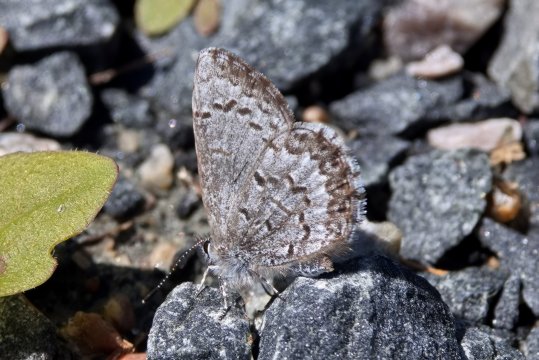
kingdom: Animalia
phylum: Arthropoda
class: Insecta
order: Lepidoptera
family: Lycaenidae
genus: Celastrina
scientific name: Celastrina lucia
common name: Northern Spring Azure
